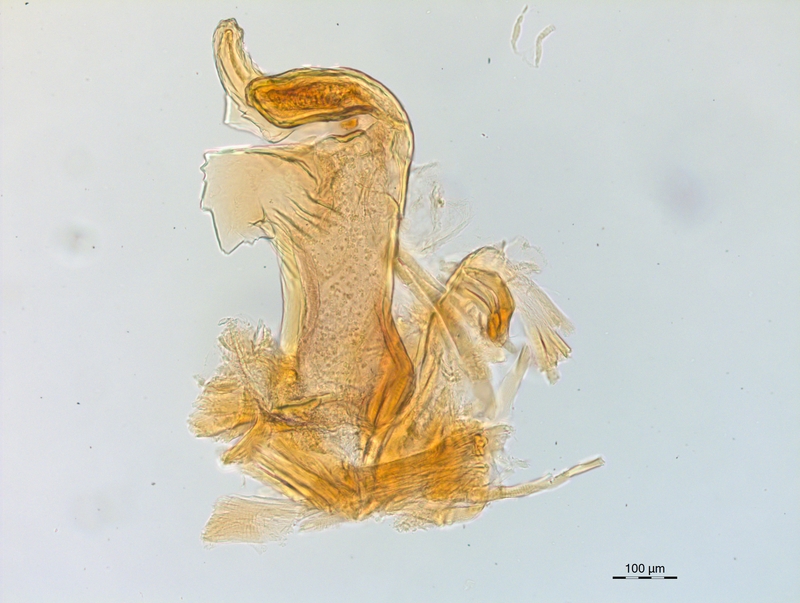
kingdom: Animalia
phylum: Arthropoda
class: Diplopoda
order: Chordeumatida
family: Craspedosomatidae
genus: Craspedosoma
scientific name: Craspedosoma rawlinsii
